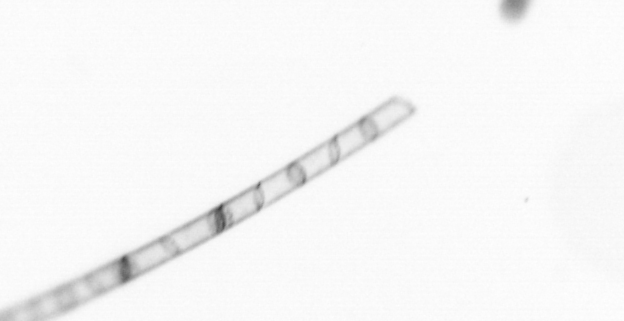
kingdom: Chromista
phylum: Ochrophyta
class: Bacillariophyceae
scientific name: Bacillariophyceae
